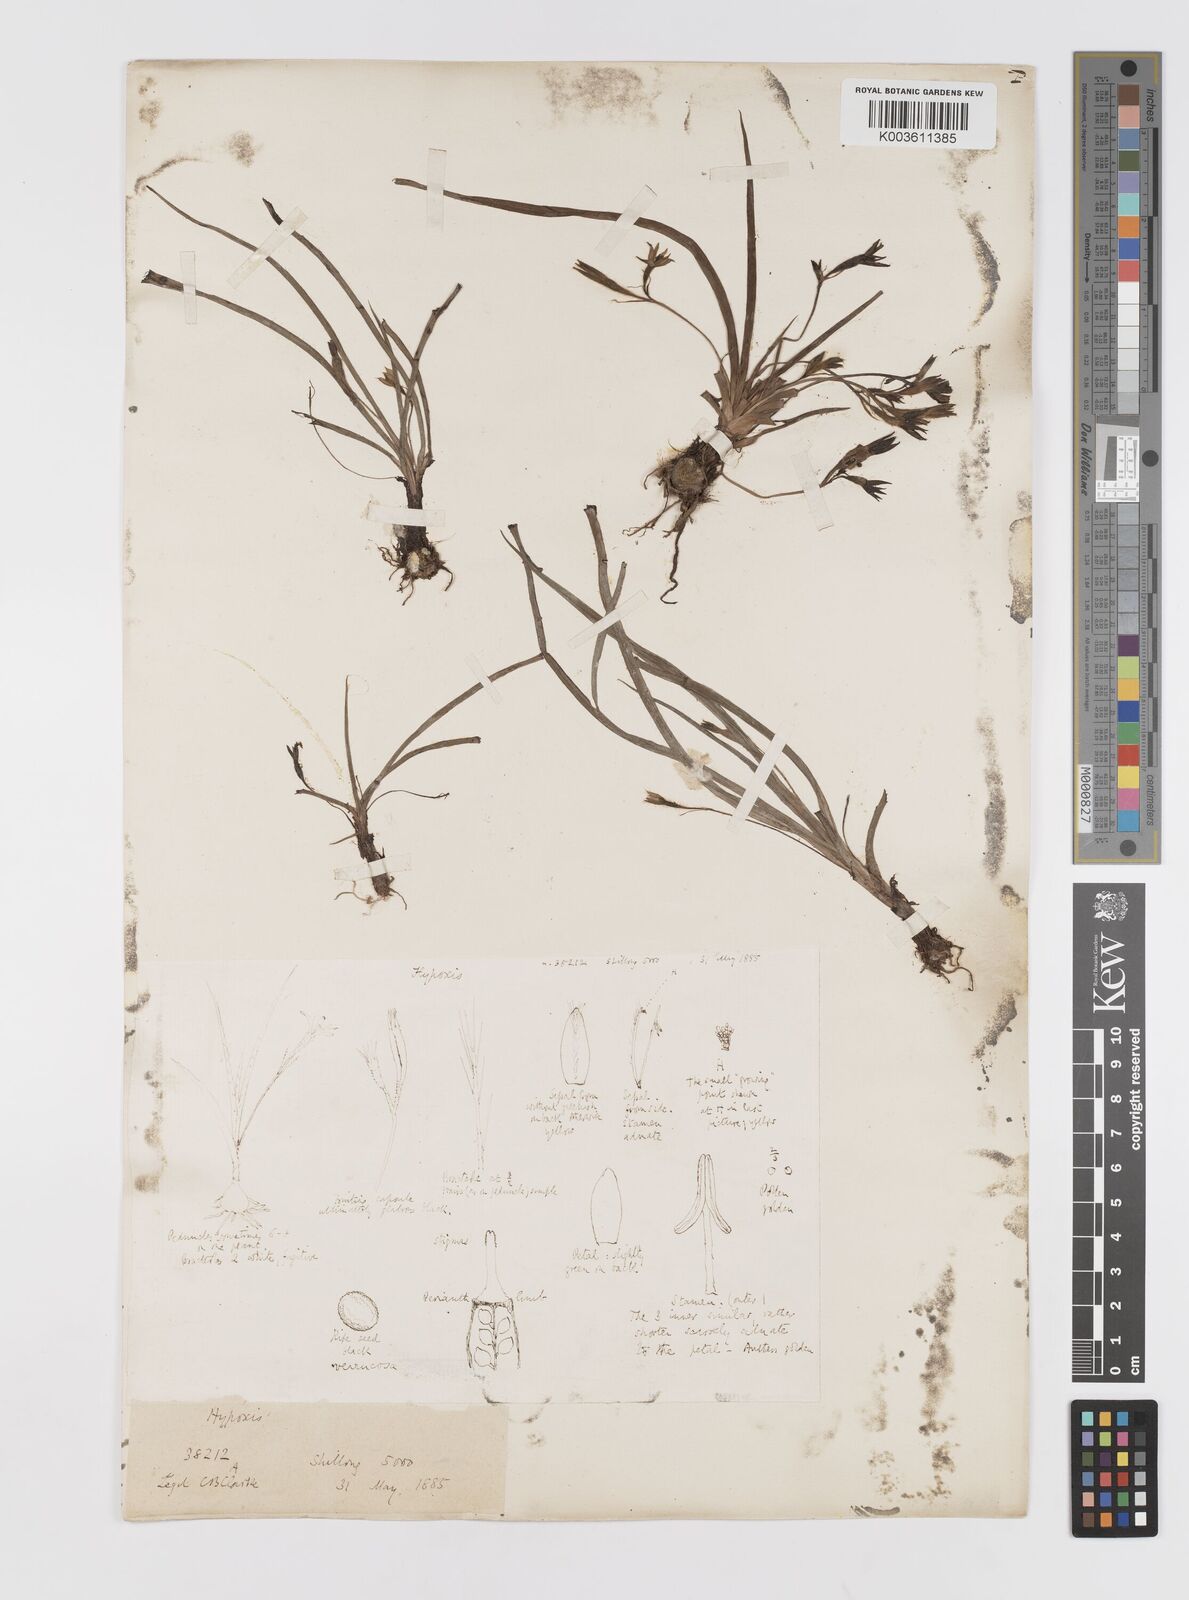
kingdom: Plantae
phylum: Tracheophyta
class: Liliopsida
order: Asparagales
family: Hypoxidaceae
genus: Hypoxis
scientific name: Hypoxis aurea
